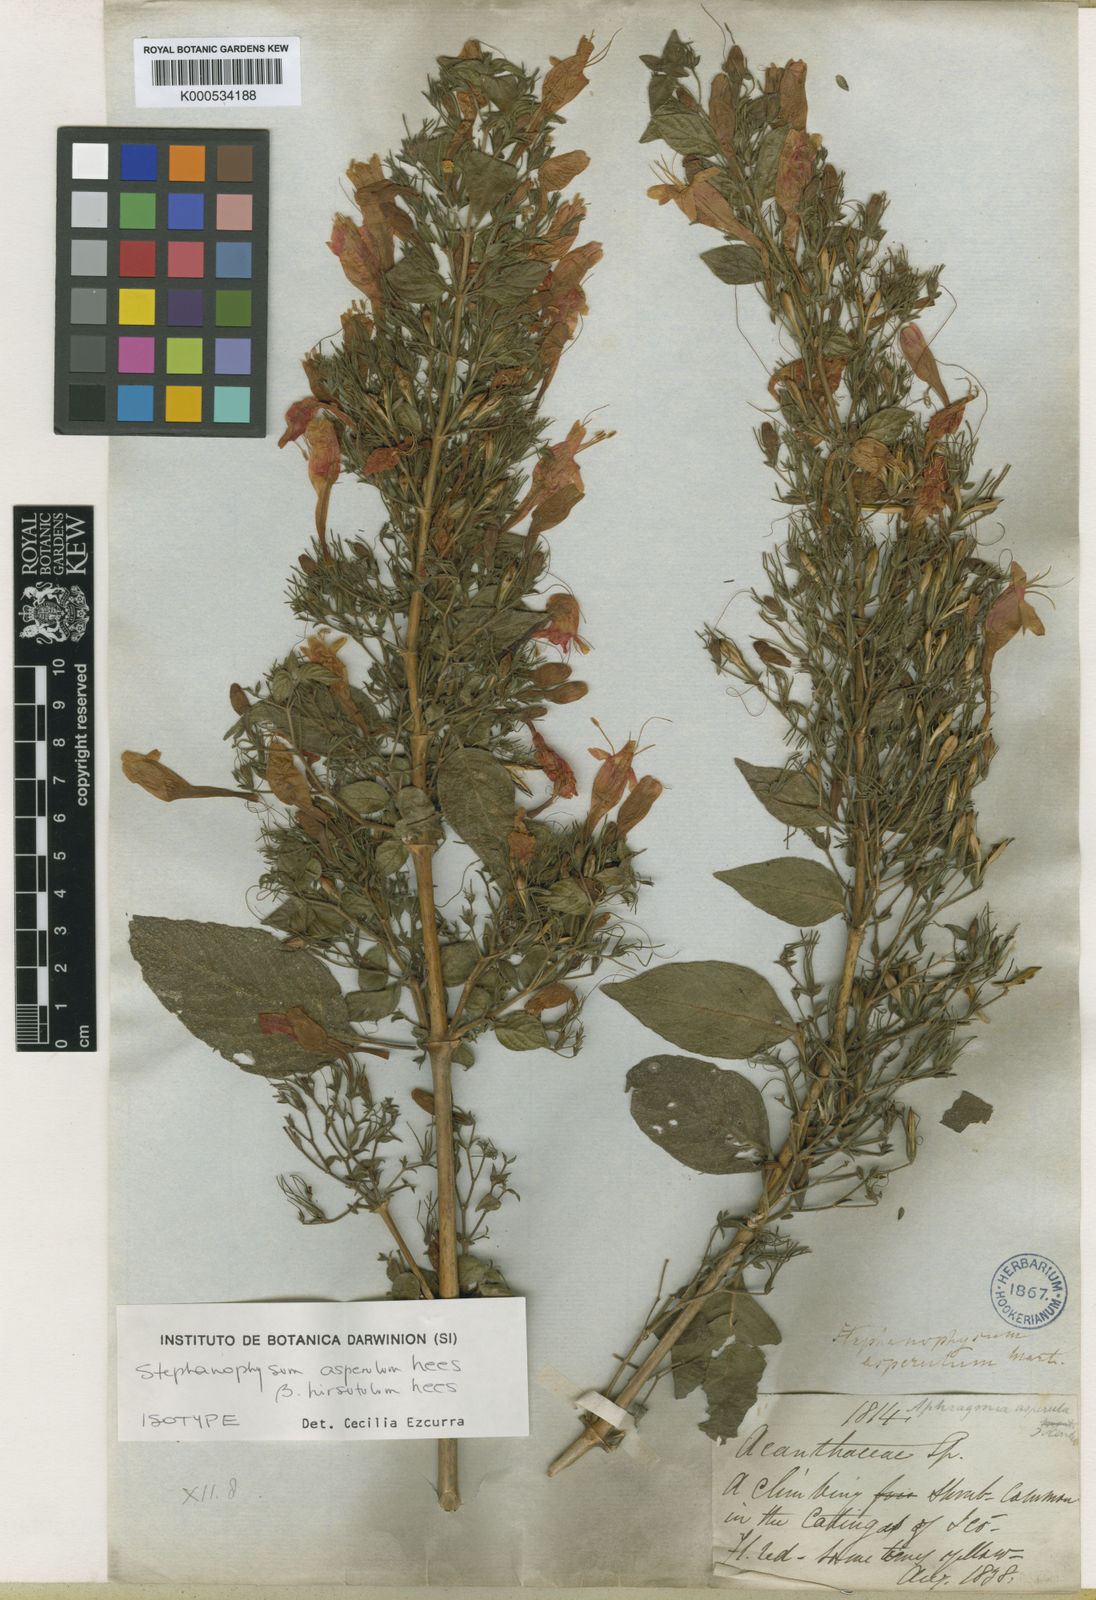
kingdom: Plantae
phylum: Tracheophyta
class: Magnoliopsida
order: Lamiales
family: Acanthaceae
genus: Ruellia
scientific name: Ruellia asperula
